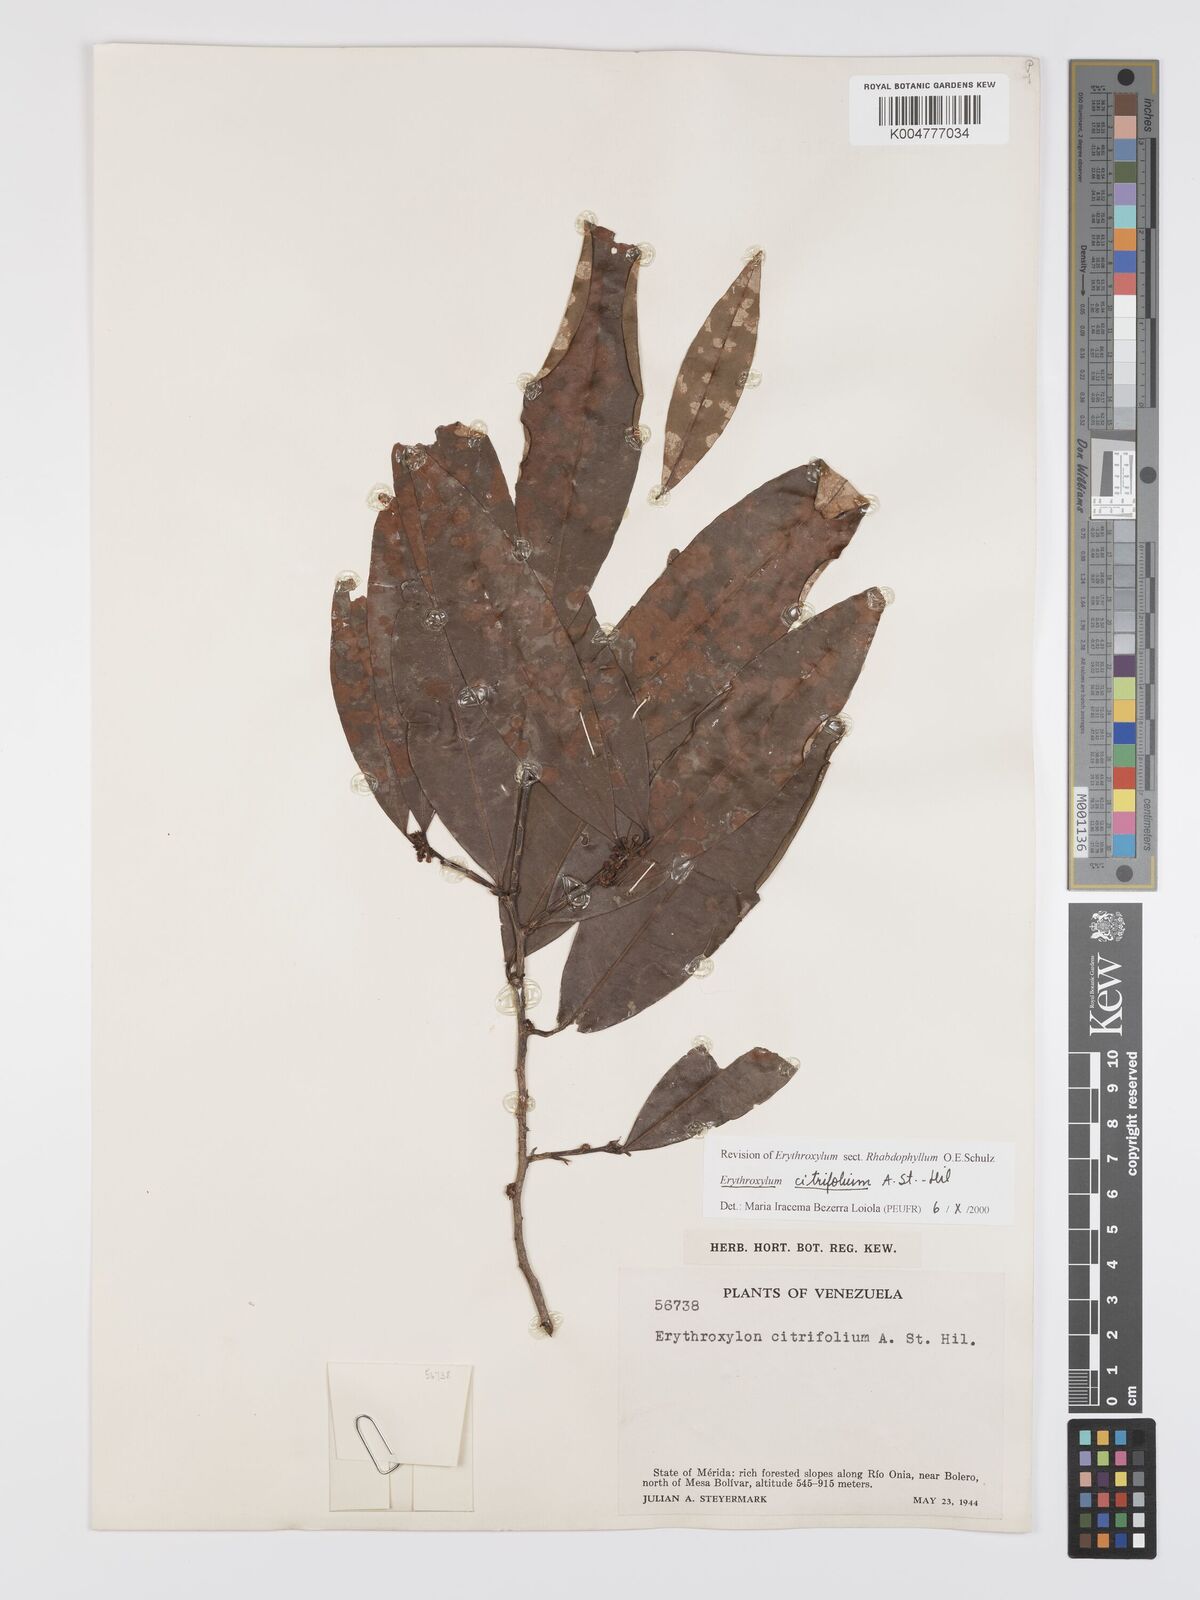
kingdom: Plantae
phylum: Tracheophyta
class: Magnoliopsida
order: Malpighiales
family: Erythroxylaceae
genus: Erythroxylum
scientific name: Erythroxylum citrifolium
